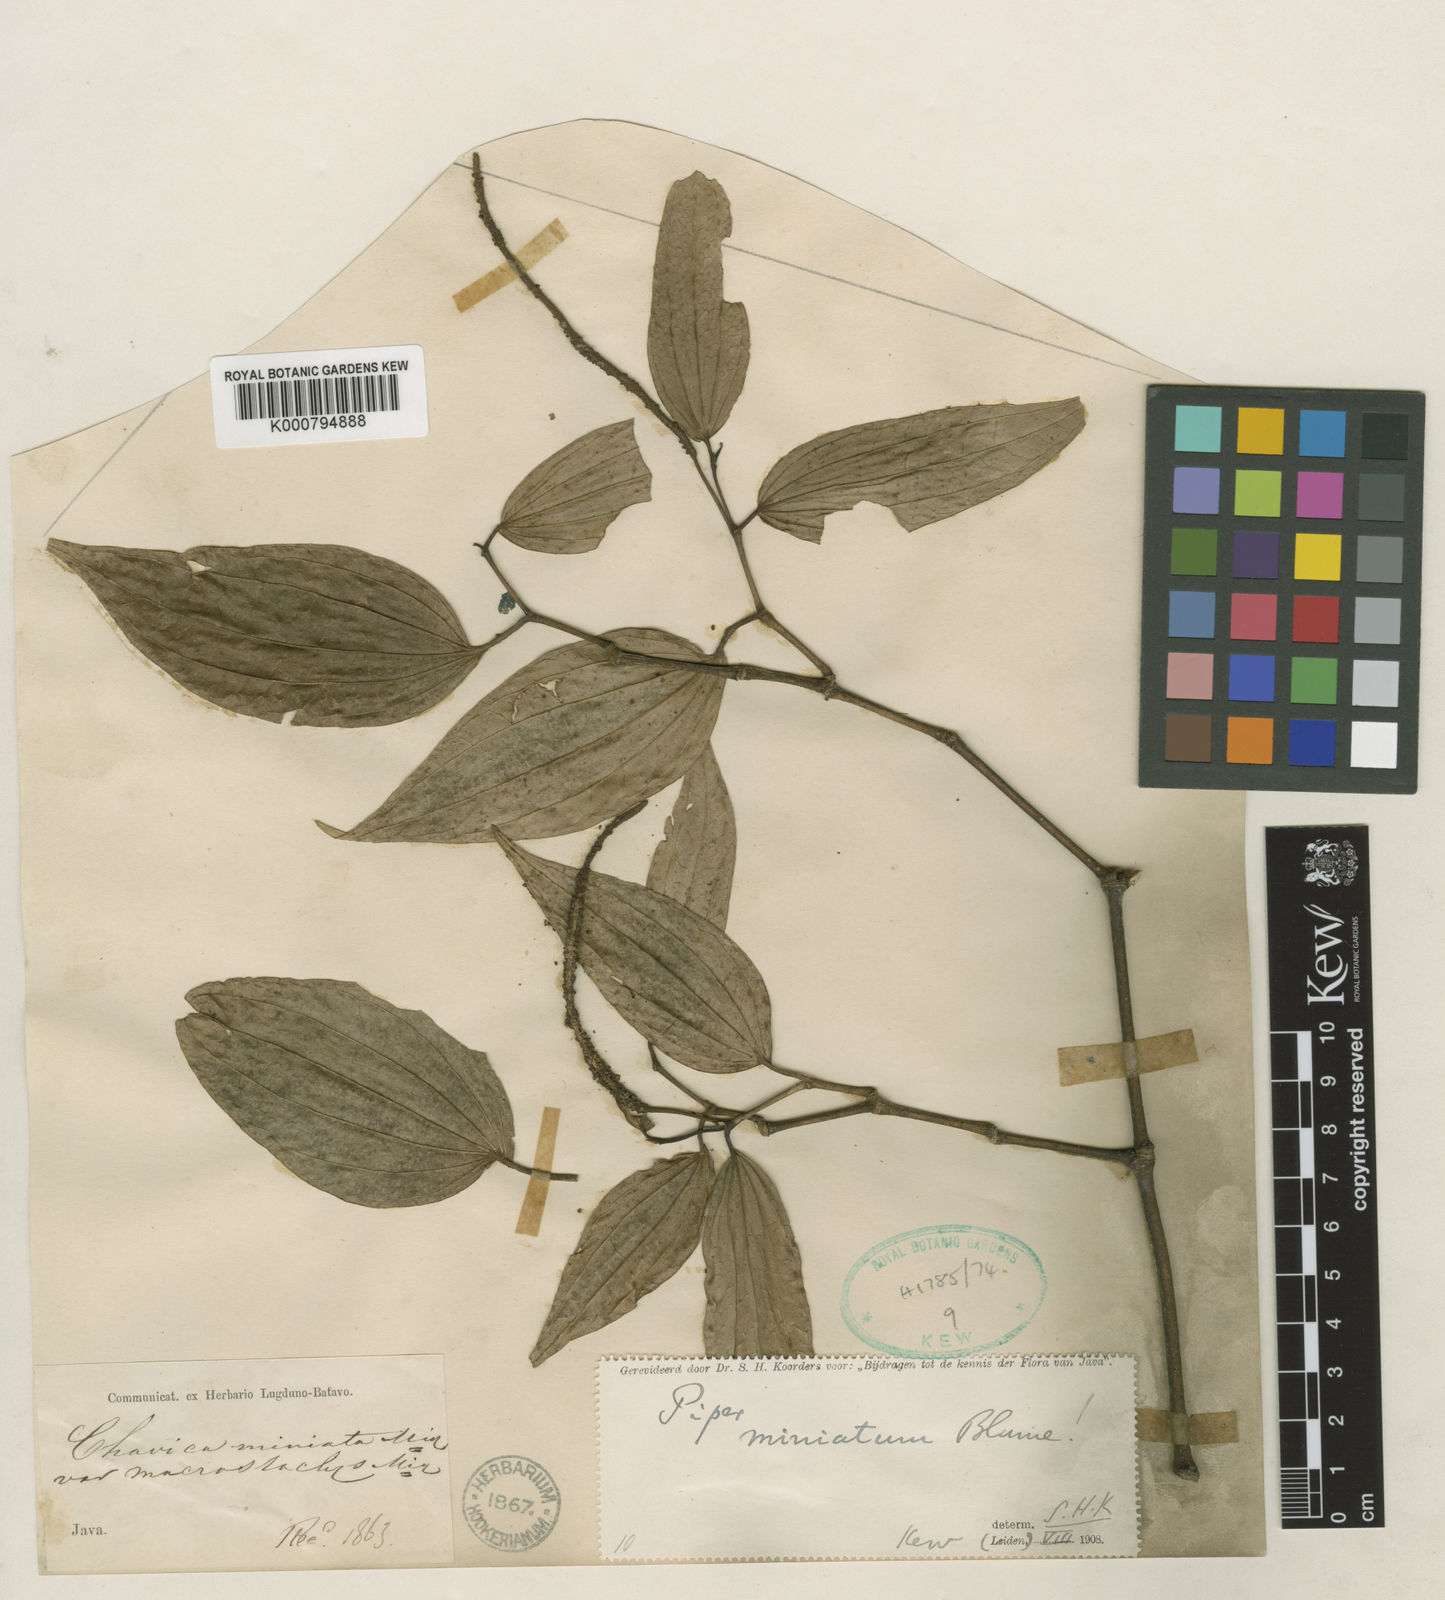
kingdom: Plantae
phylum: Tracheophyta
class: Magnoliopsida
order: Piperales
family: Piperaceae
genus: Piper
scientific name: Piper macropiper
